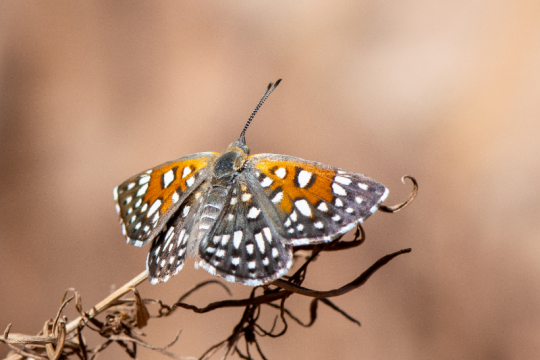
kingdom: Animalia
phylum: Arthropoda
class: Insecta
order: Lepidoptera
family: Riodinidae
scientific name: Riodinidae
